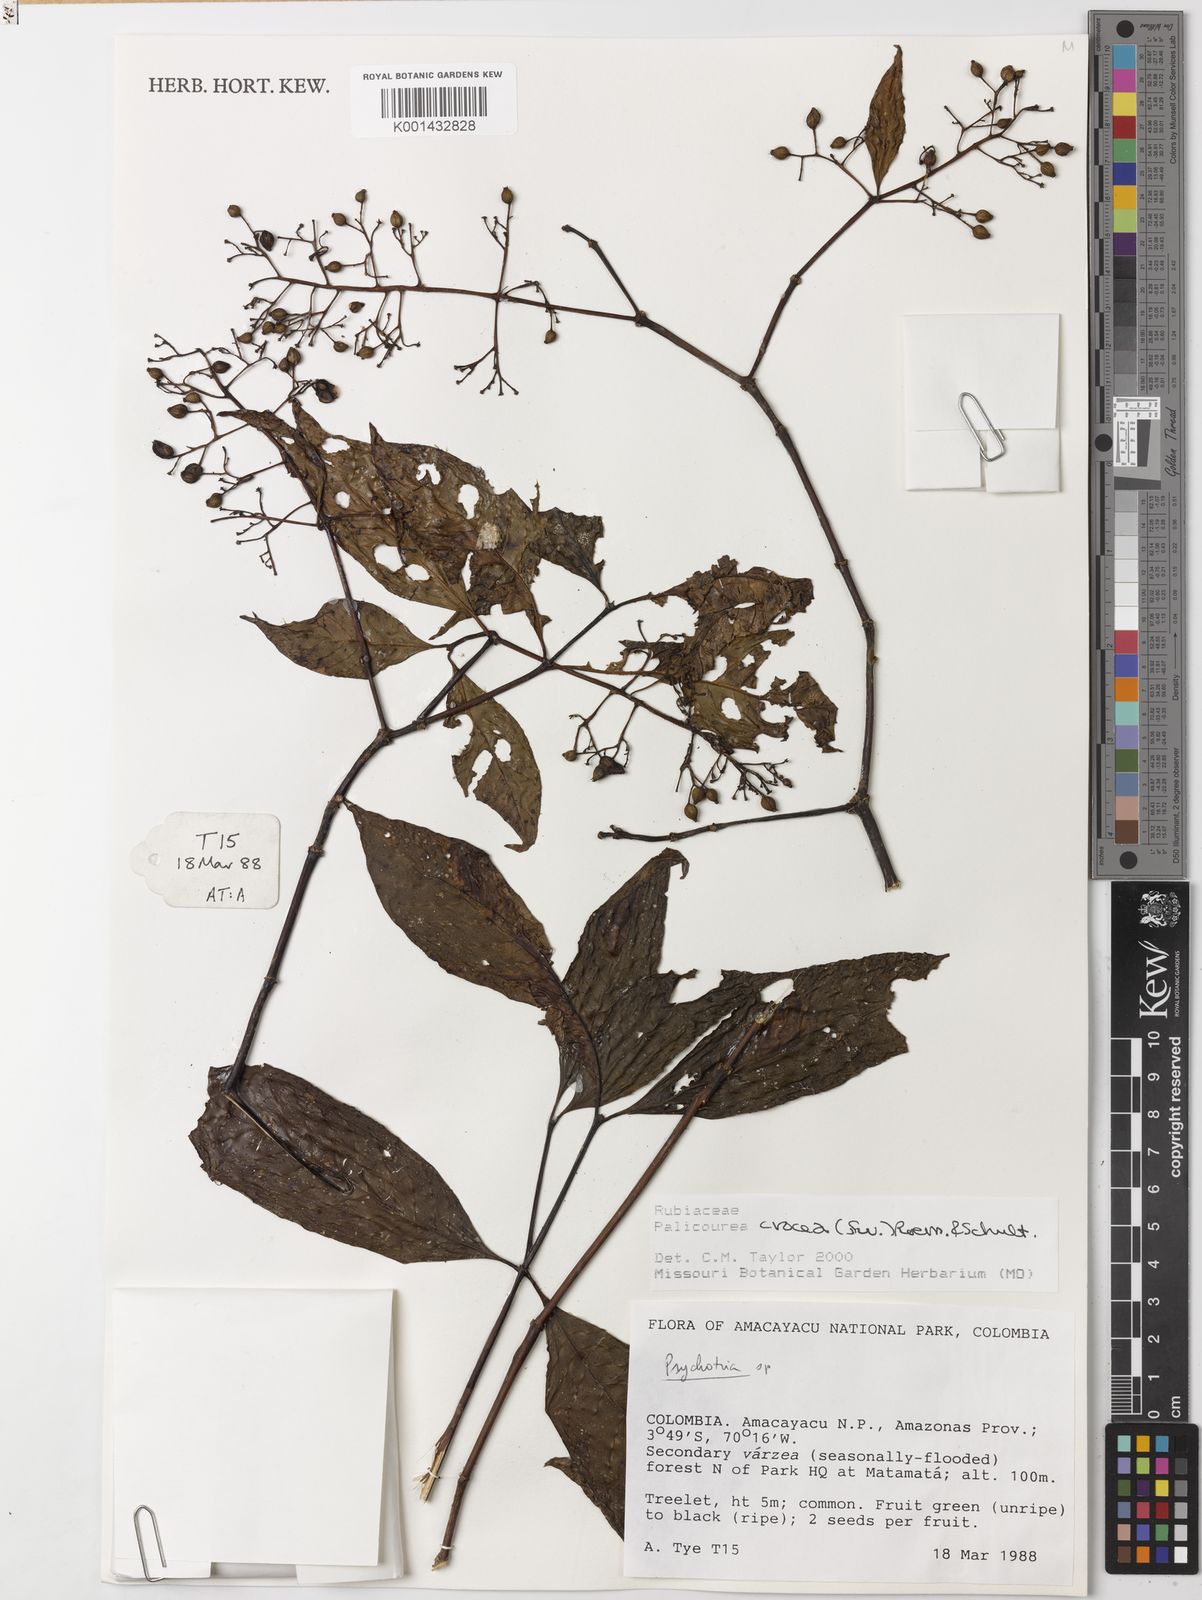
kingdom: Plantae
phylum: Tracheophyta
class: Magnoliopsida
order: Gentianales
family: Rubiaceae
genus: Palicourea
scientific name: Palicourea crocea
